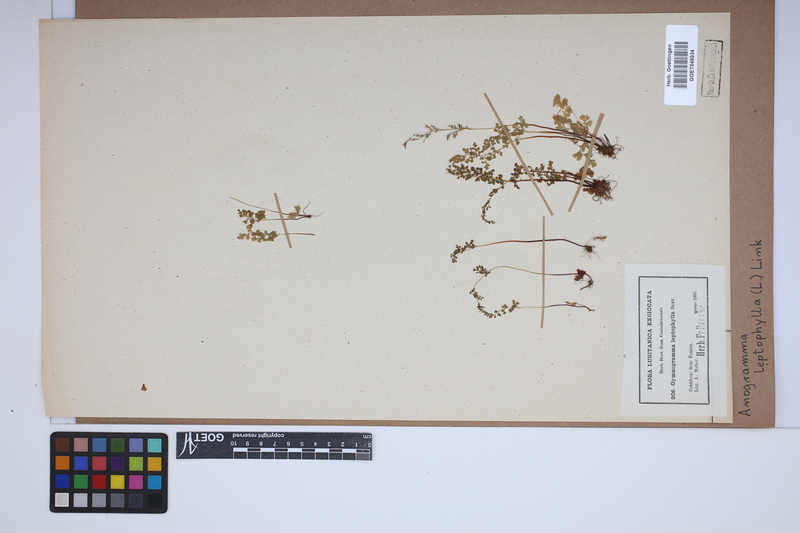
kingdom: Plantae
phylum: Tracheophyta
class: Polypodiopsida
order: Polypodiales
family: Pteridaceae
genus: Anogramma
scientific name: Anogramma leptophylla
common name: Jersey fern
